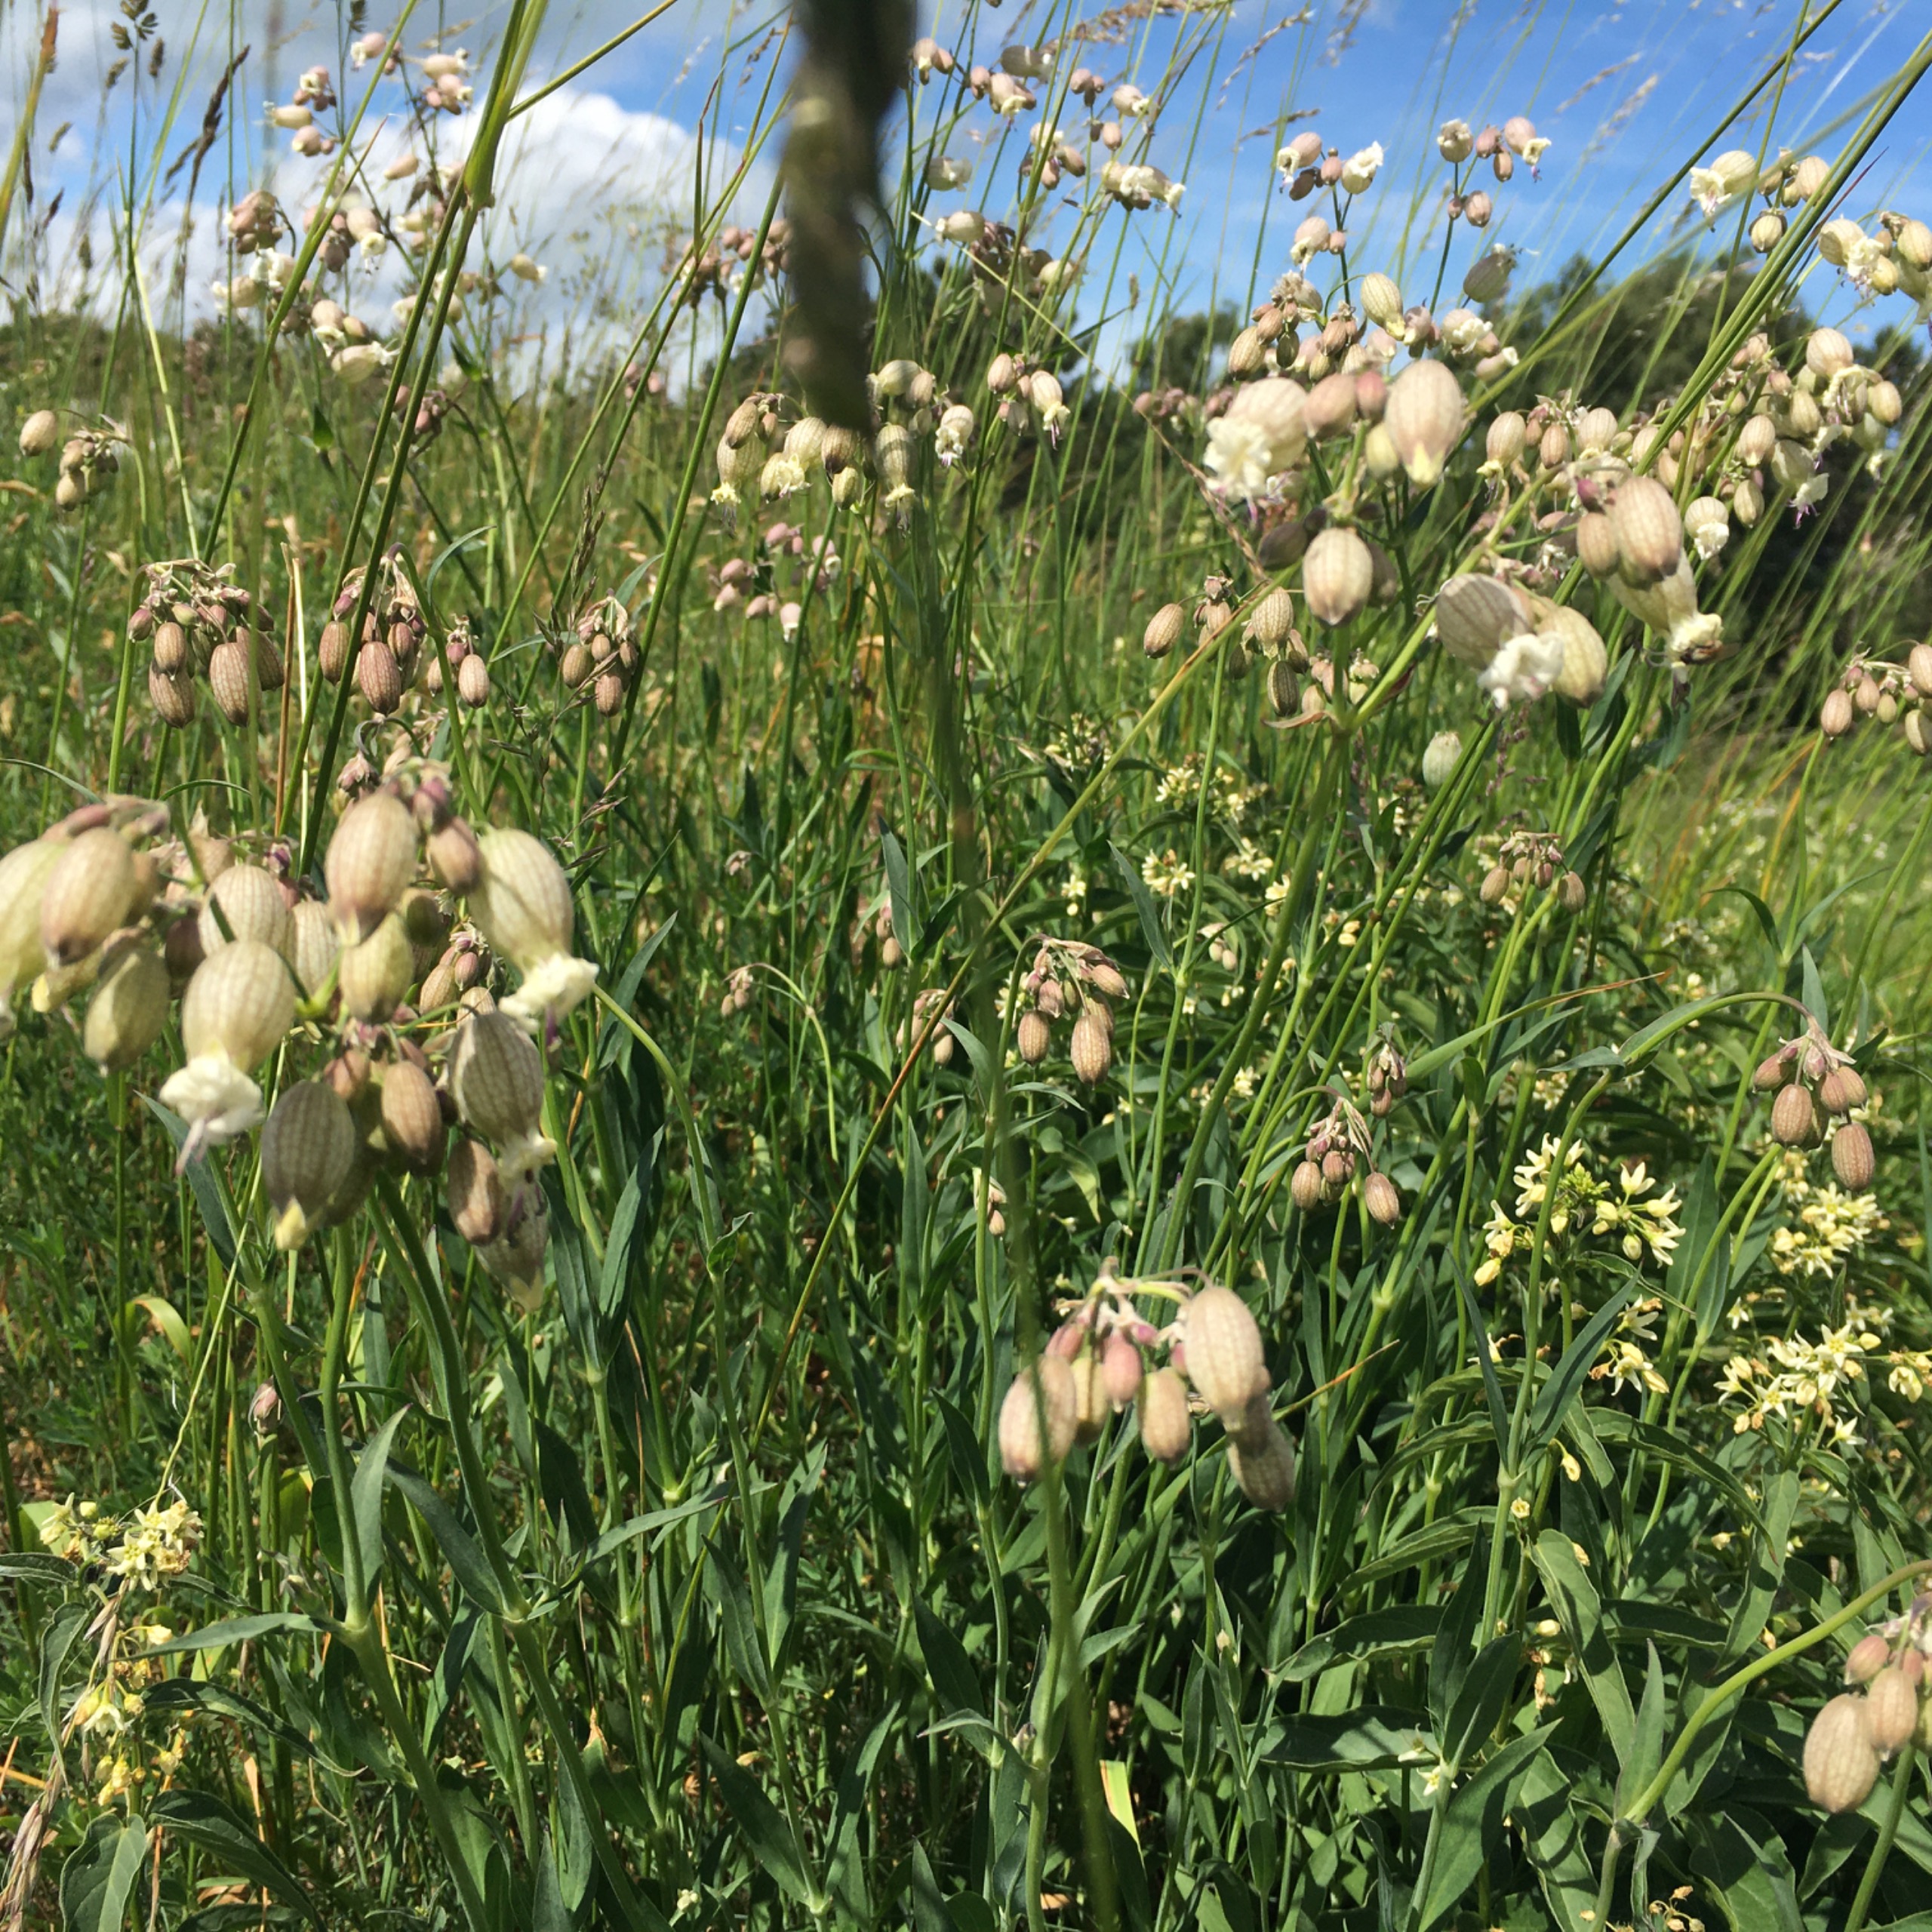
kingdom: Plantae
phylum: Tracheophyta
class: Magnoliopsida
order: Caryophyllales
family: Caryophyllaceae
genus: Silene
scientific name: Silene vulgaris
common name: Blæresmælde
